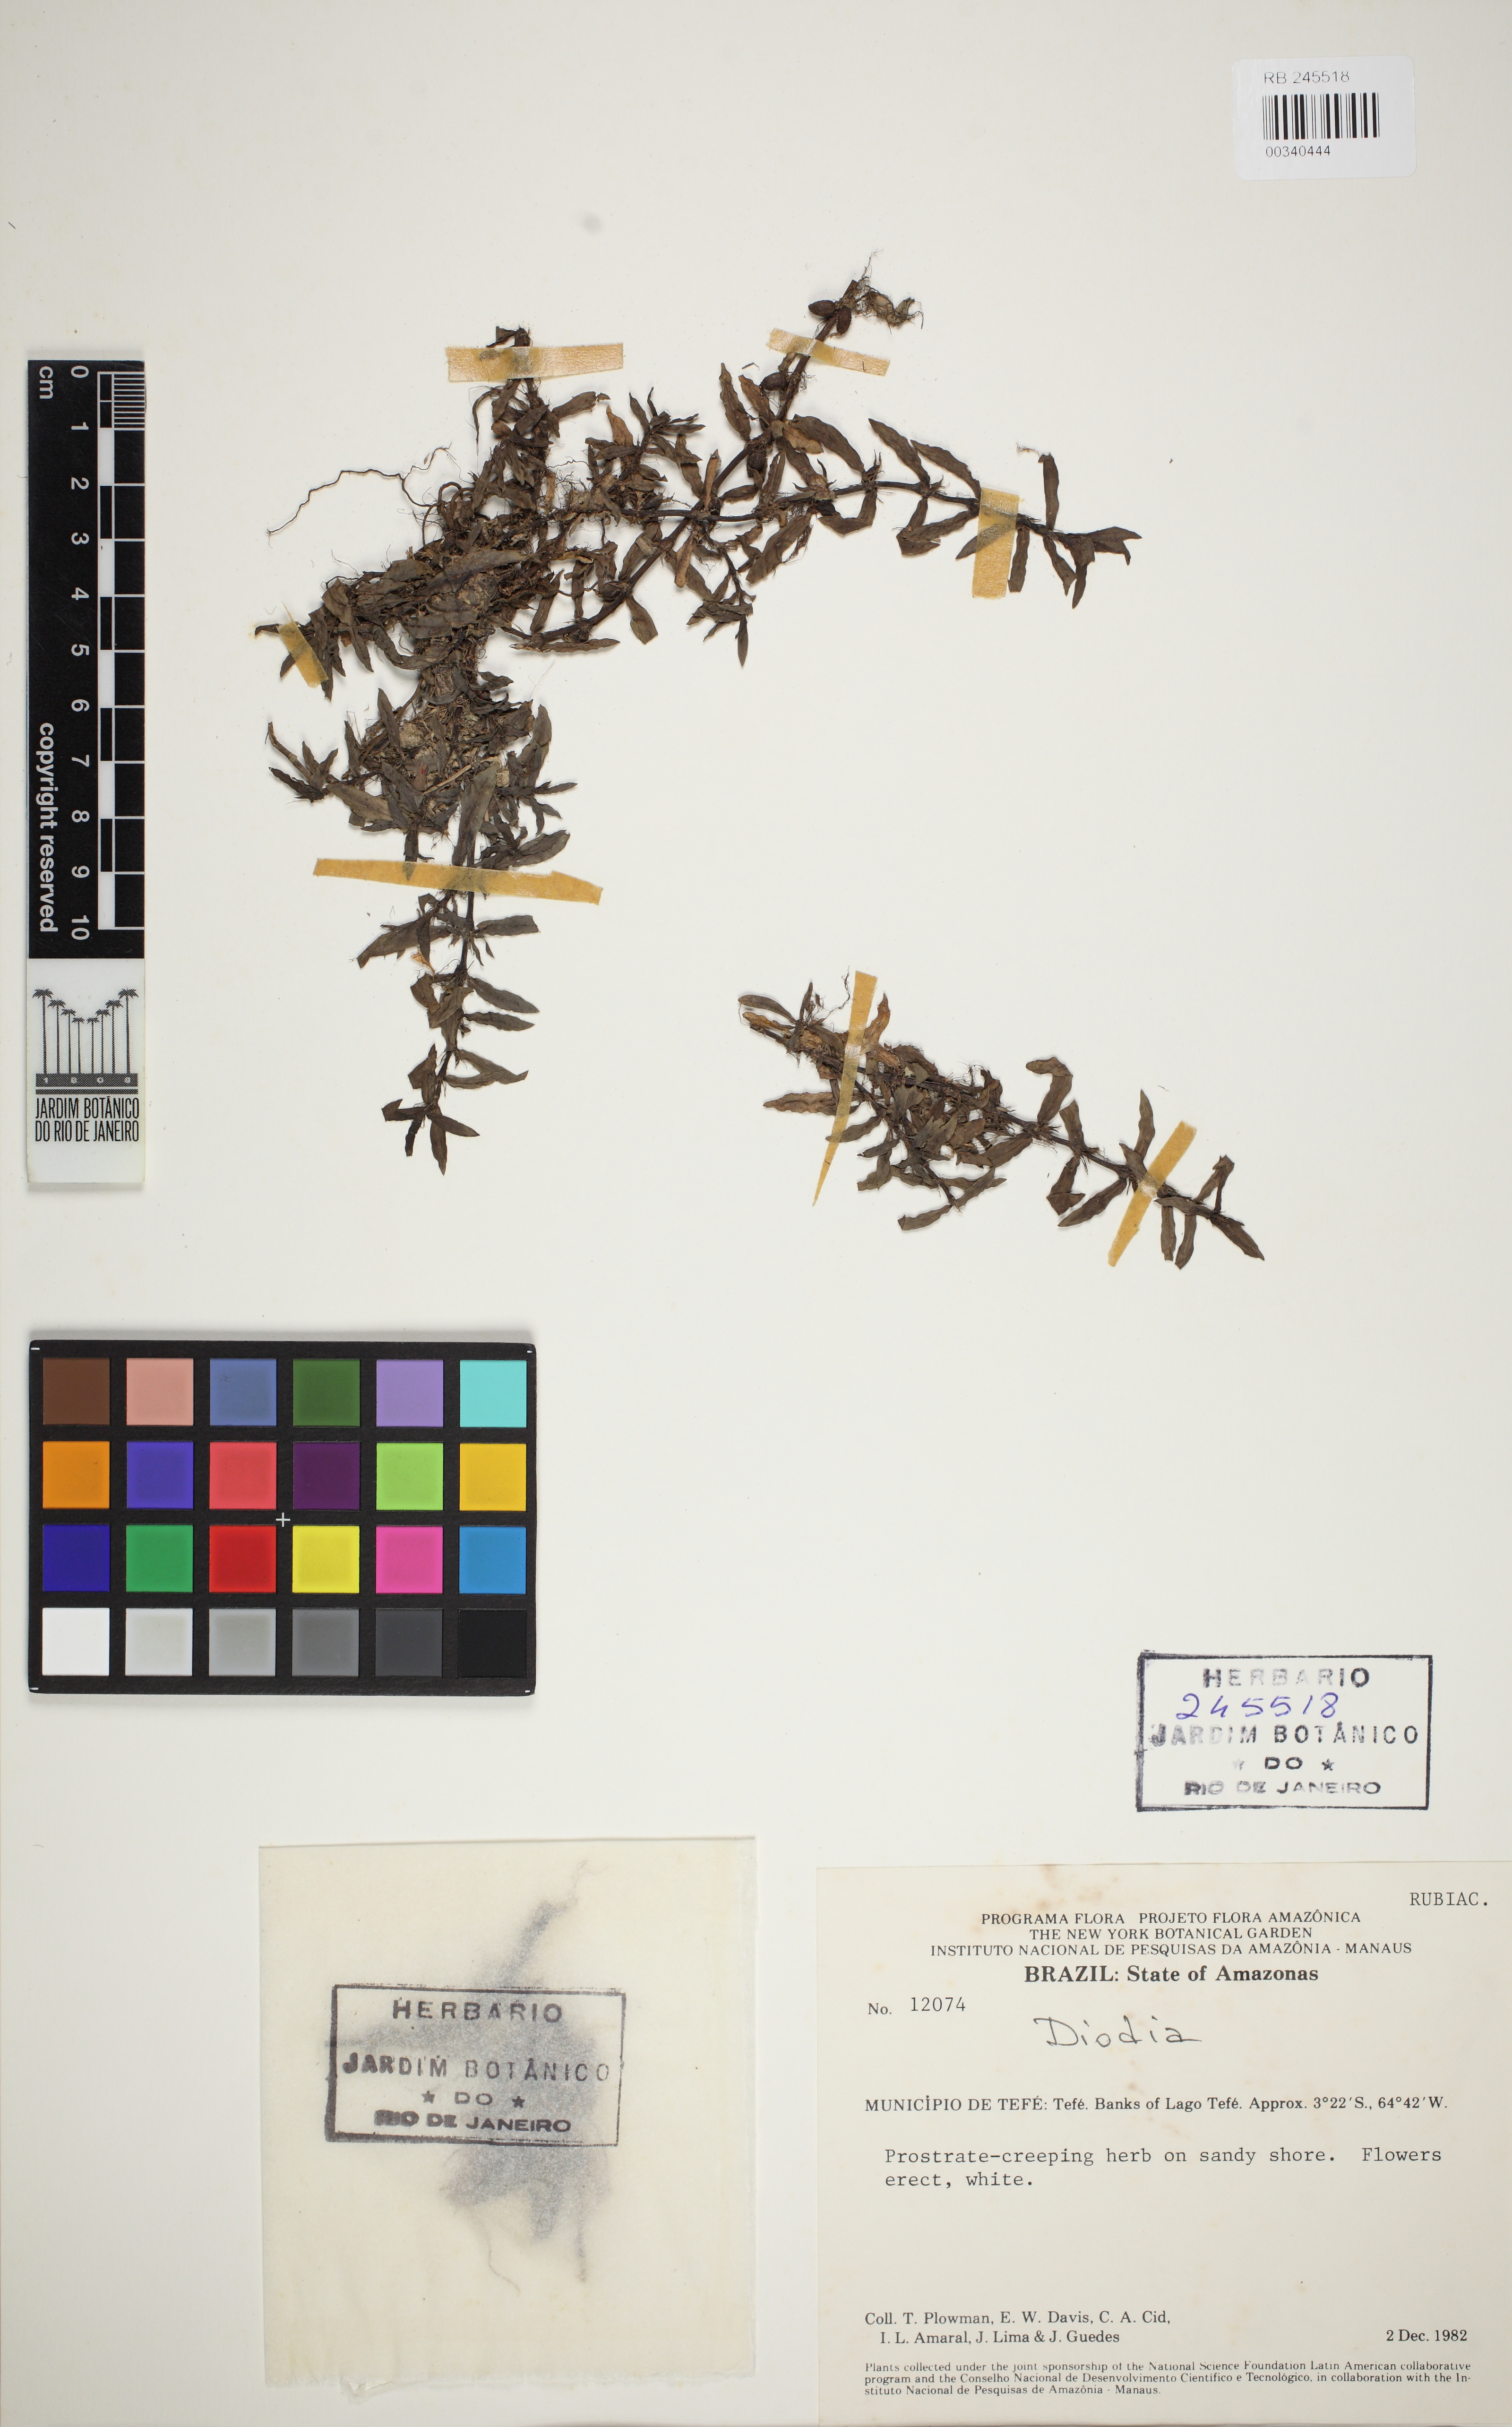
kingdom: Plantae
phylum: Tracheophyta
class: Magnoliopsida
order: Gentianales
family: Rubiaceae
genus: Diodia
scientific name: Diodia kuntzei
